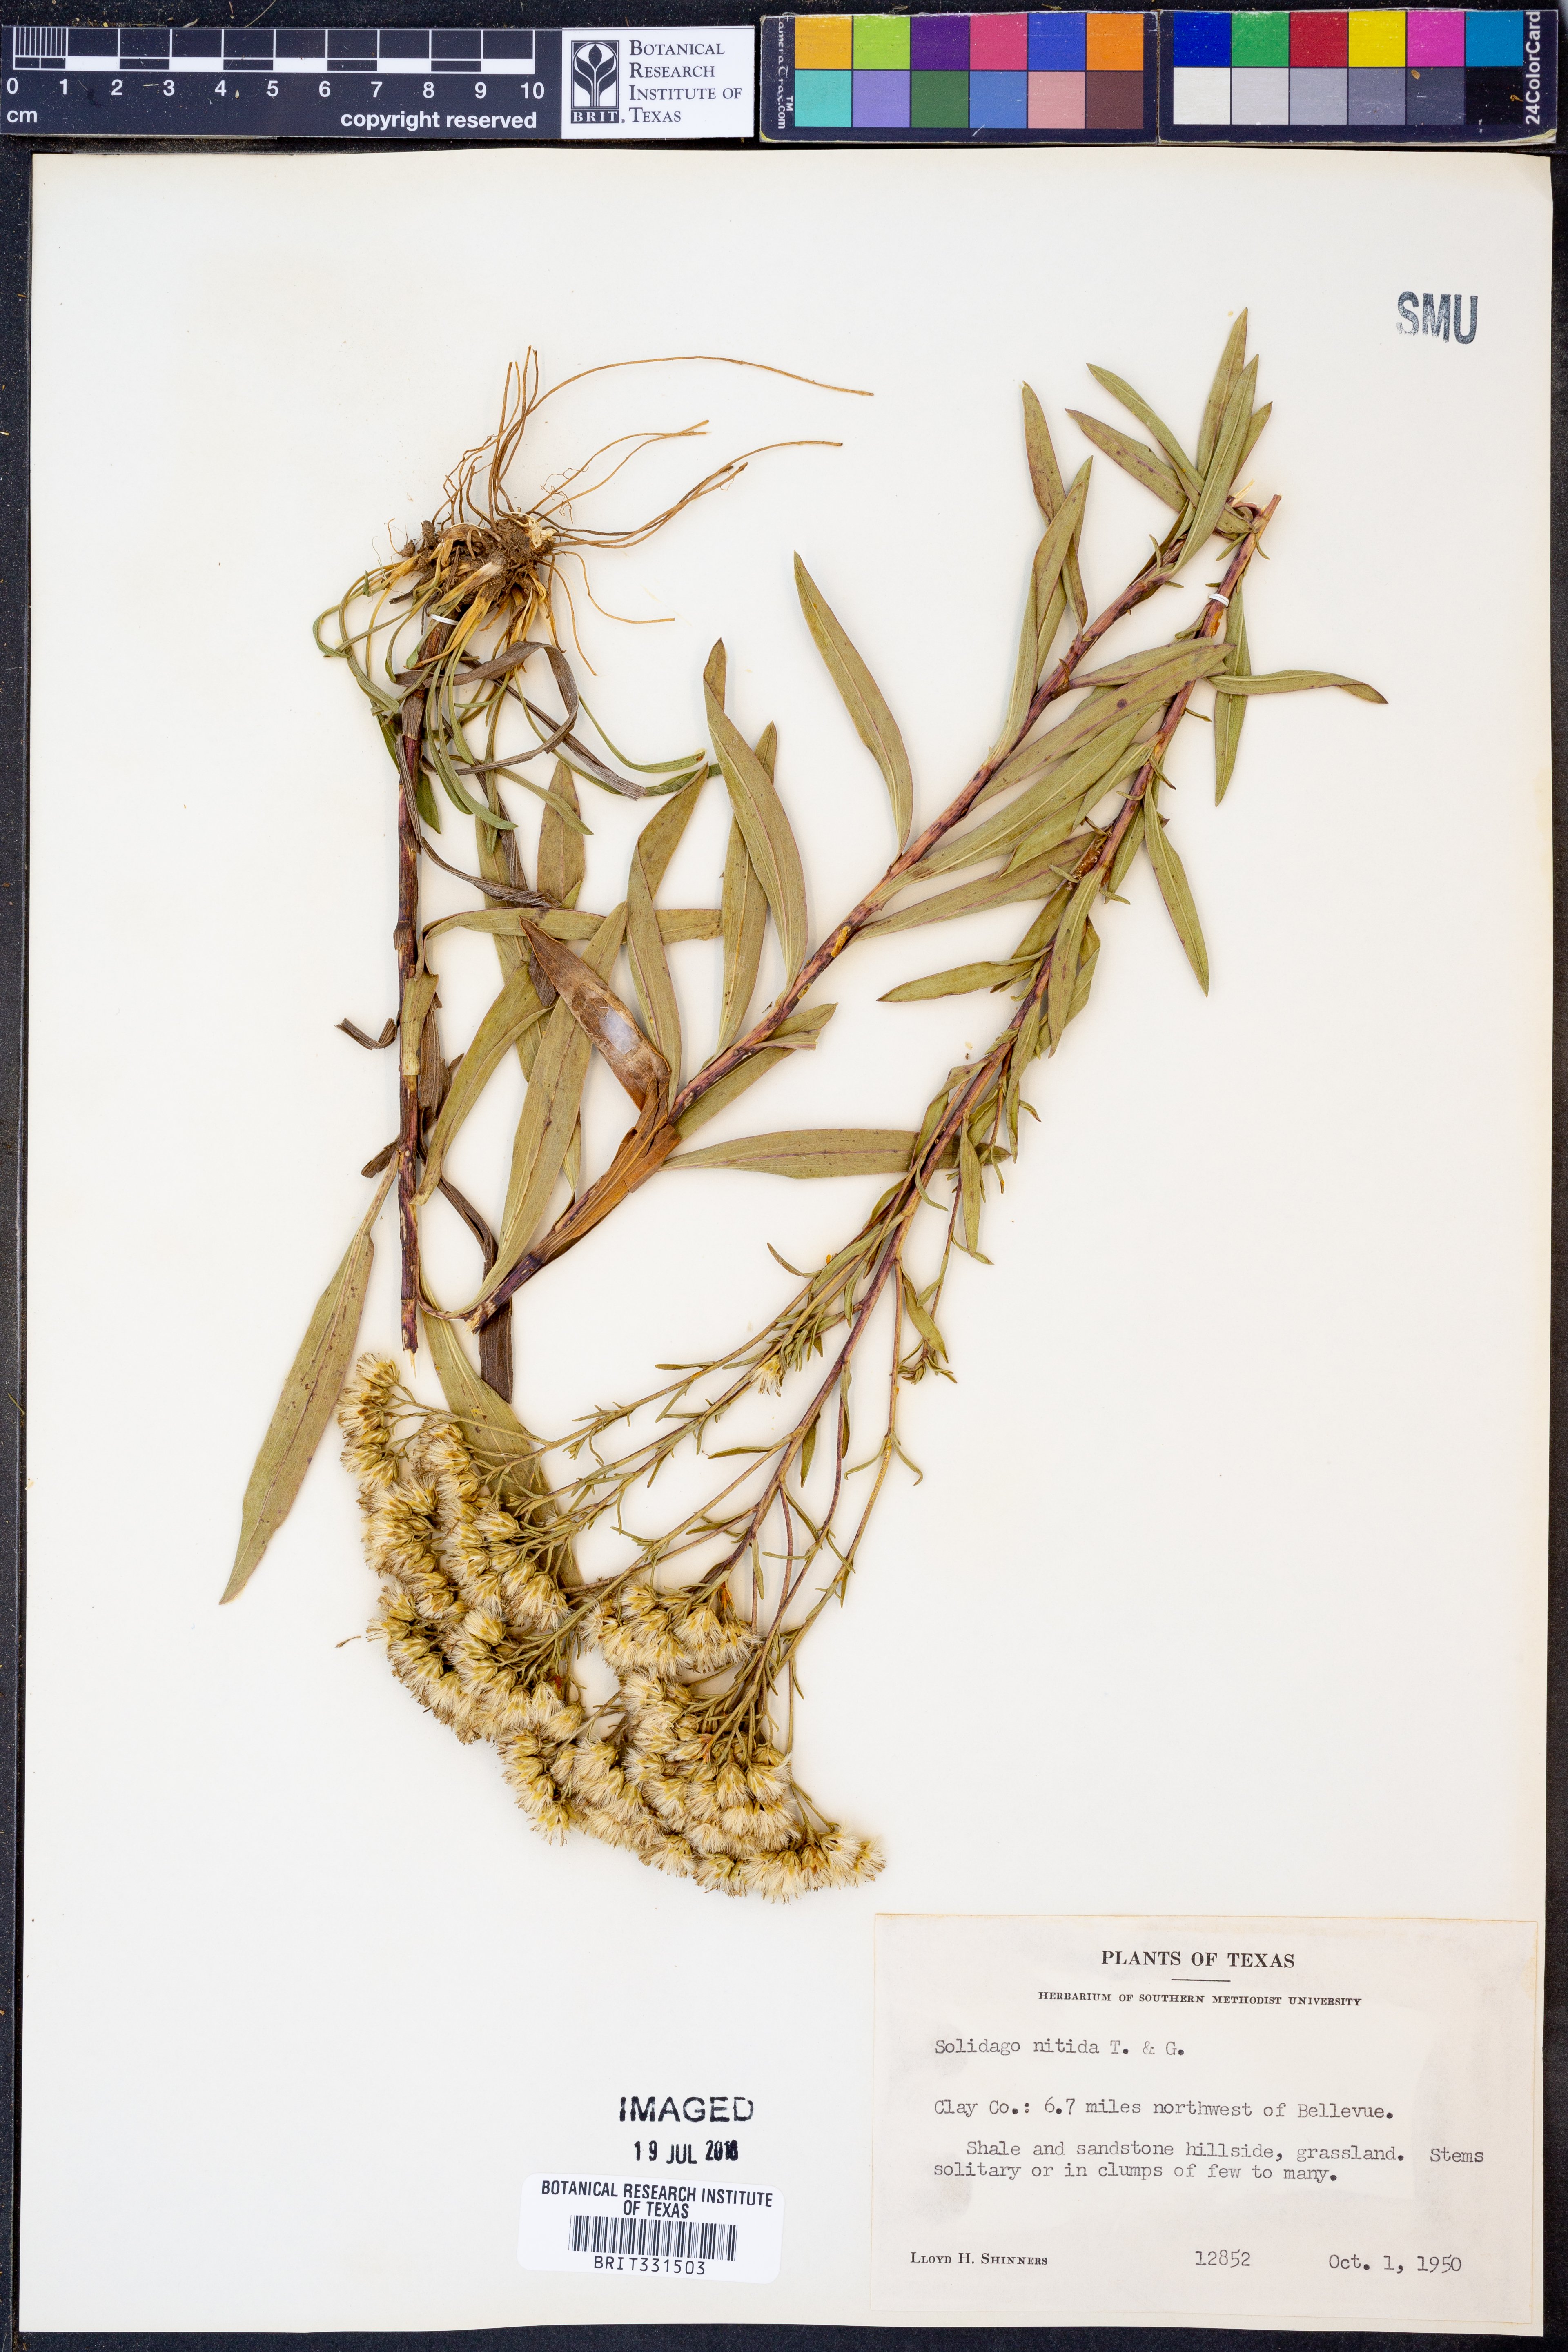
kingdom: Plantae
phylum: Tracheophyta
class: Magnoliopsida
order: Asterales
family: Asteraceae
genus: Solidago
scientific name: Solidago nitida
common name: Shiny goldenrod
